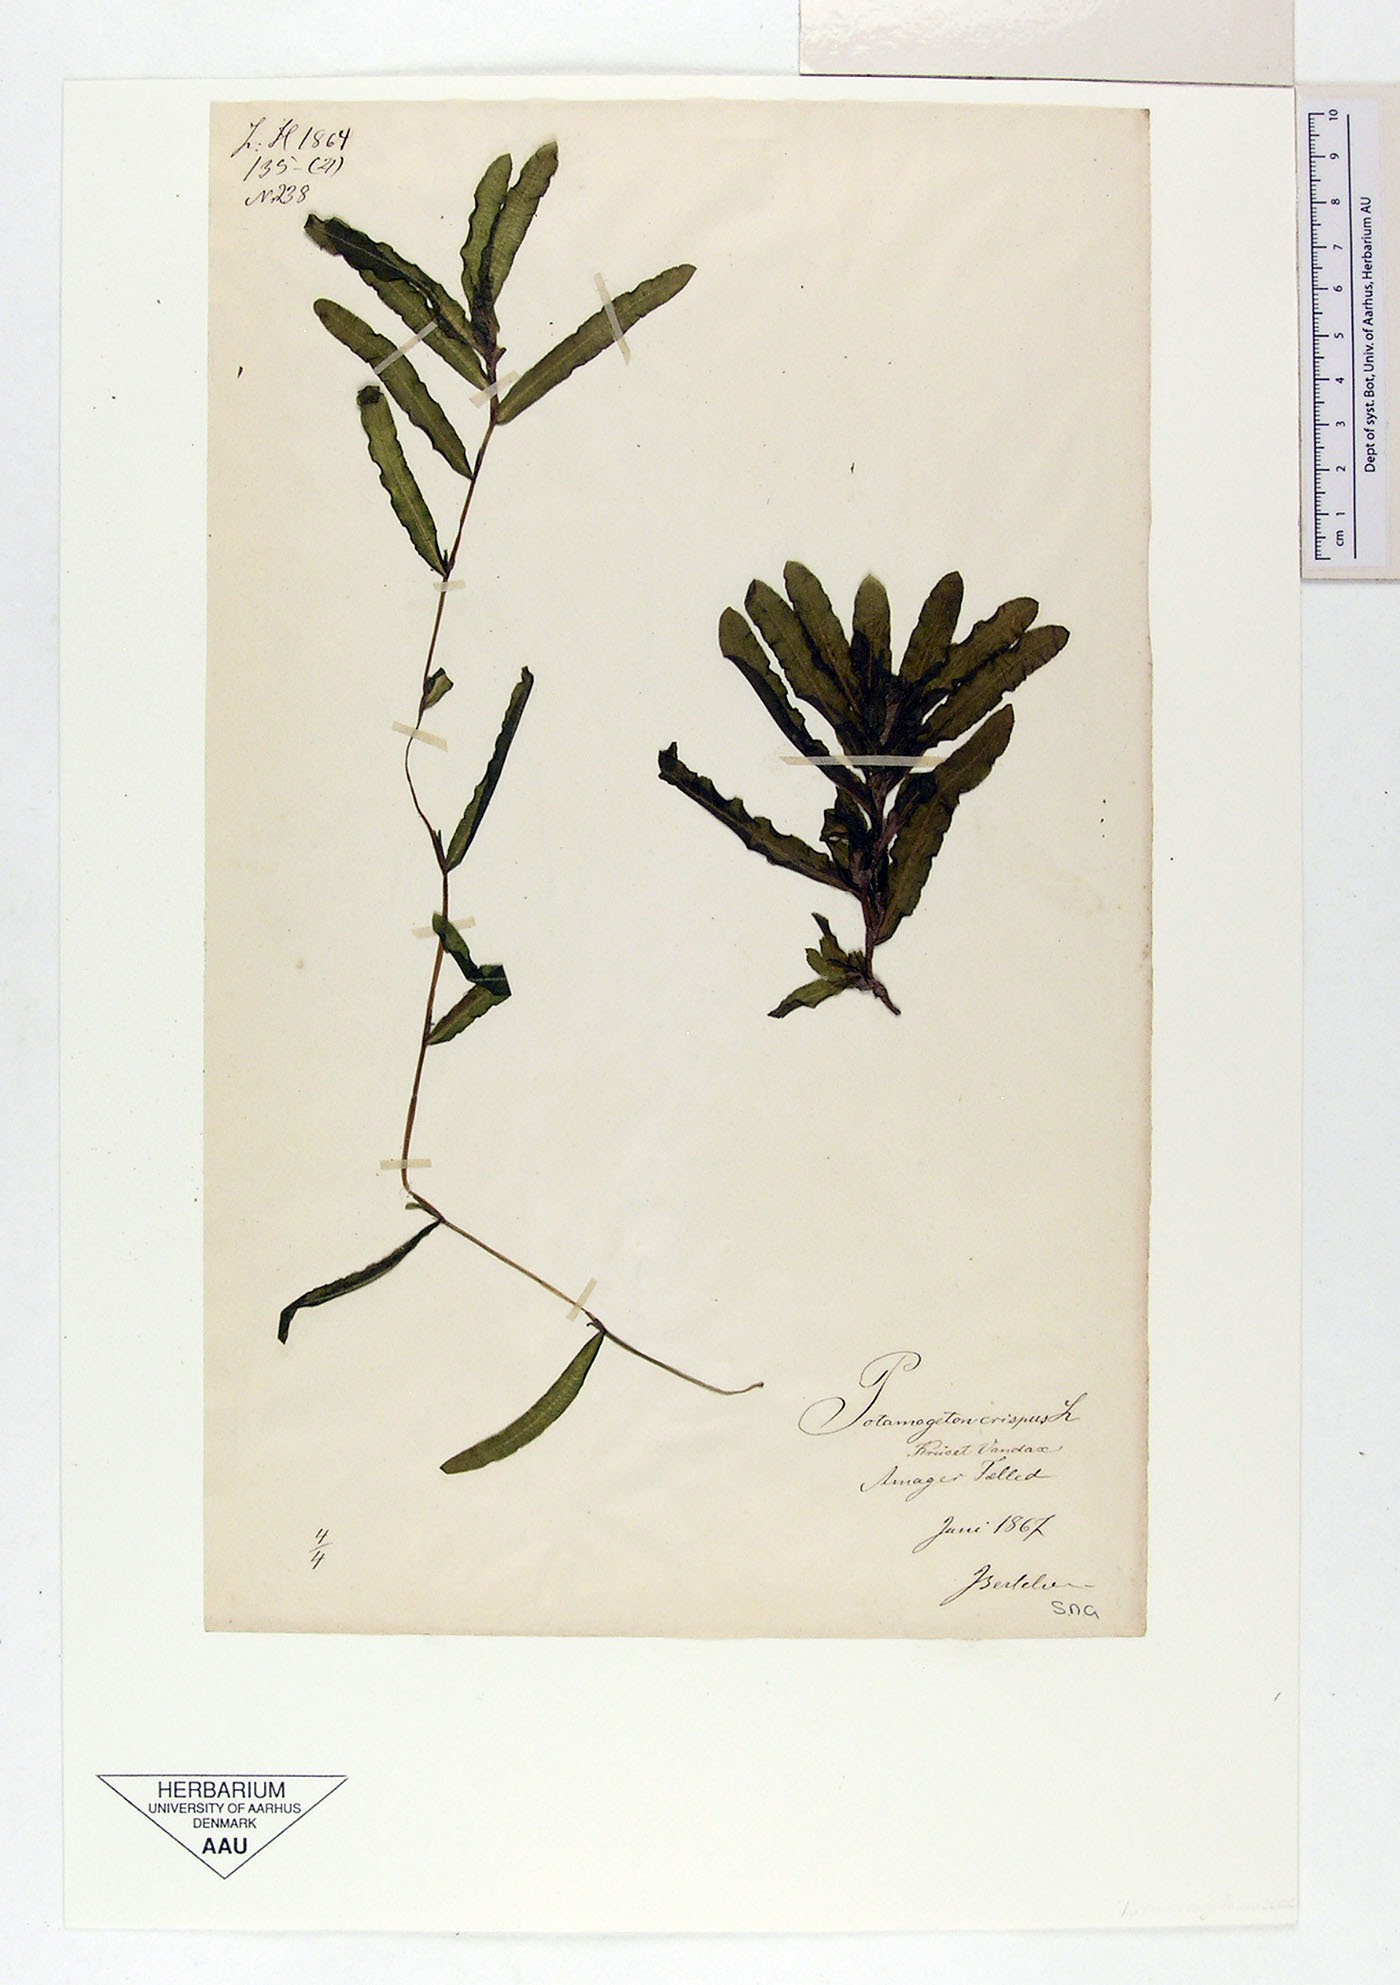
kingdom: Plantae
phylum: Tracheophyta
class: Liliopsida
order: Alismatales
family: Potamogetonaceae
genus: Potamogeton
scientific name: Potamogeton crispus
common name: Curled pondweed
